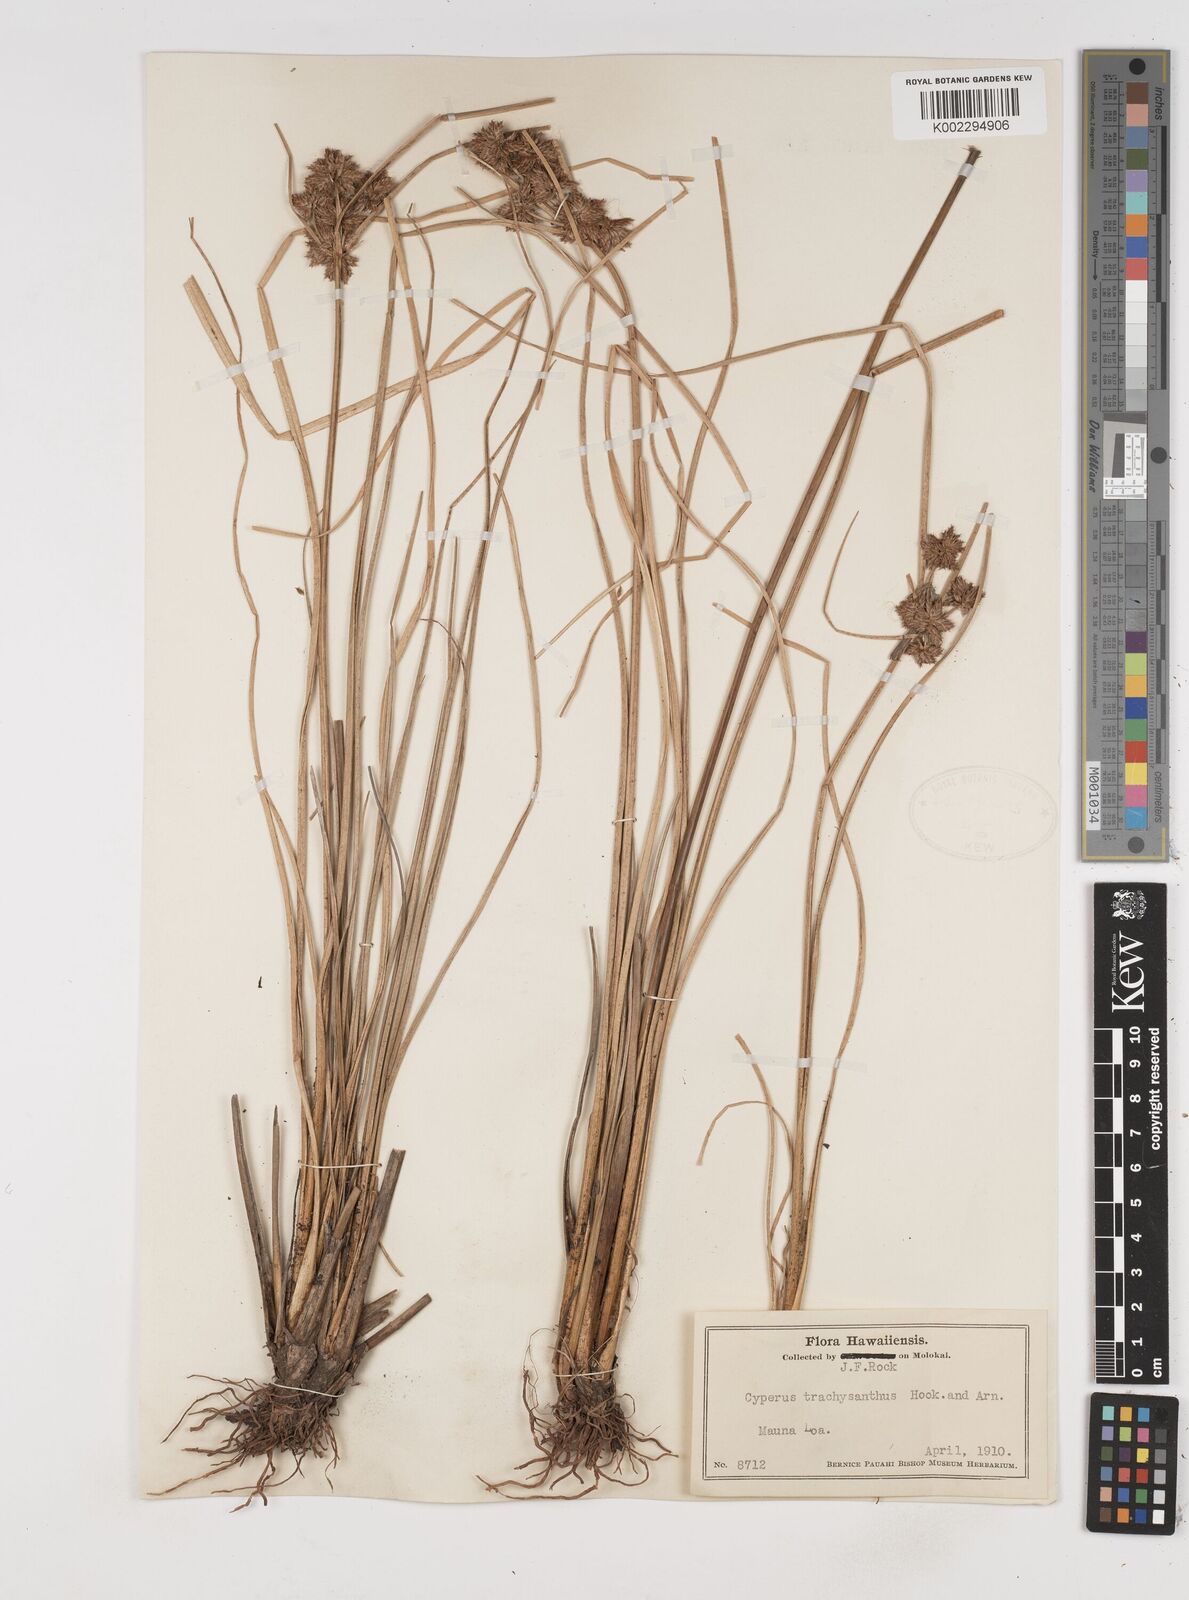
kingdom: Plantae
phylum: Tracheophyta
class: Liliopsida
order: Poales
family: Cyperaceae
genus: Cyperus
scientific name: Cyperus trachysanthos
